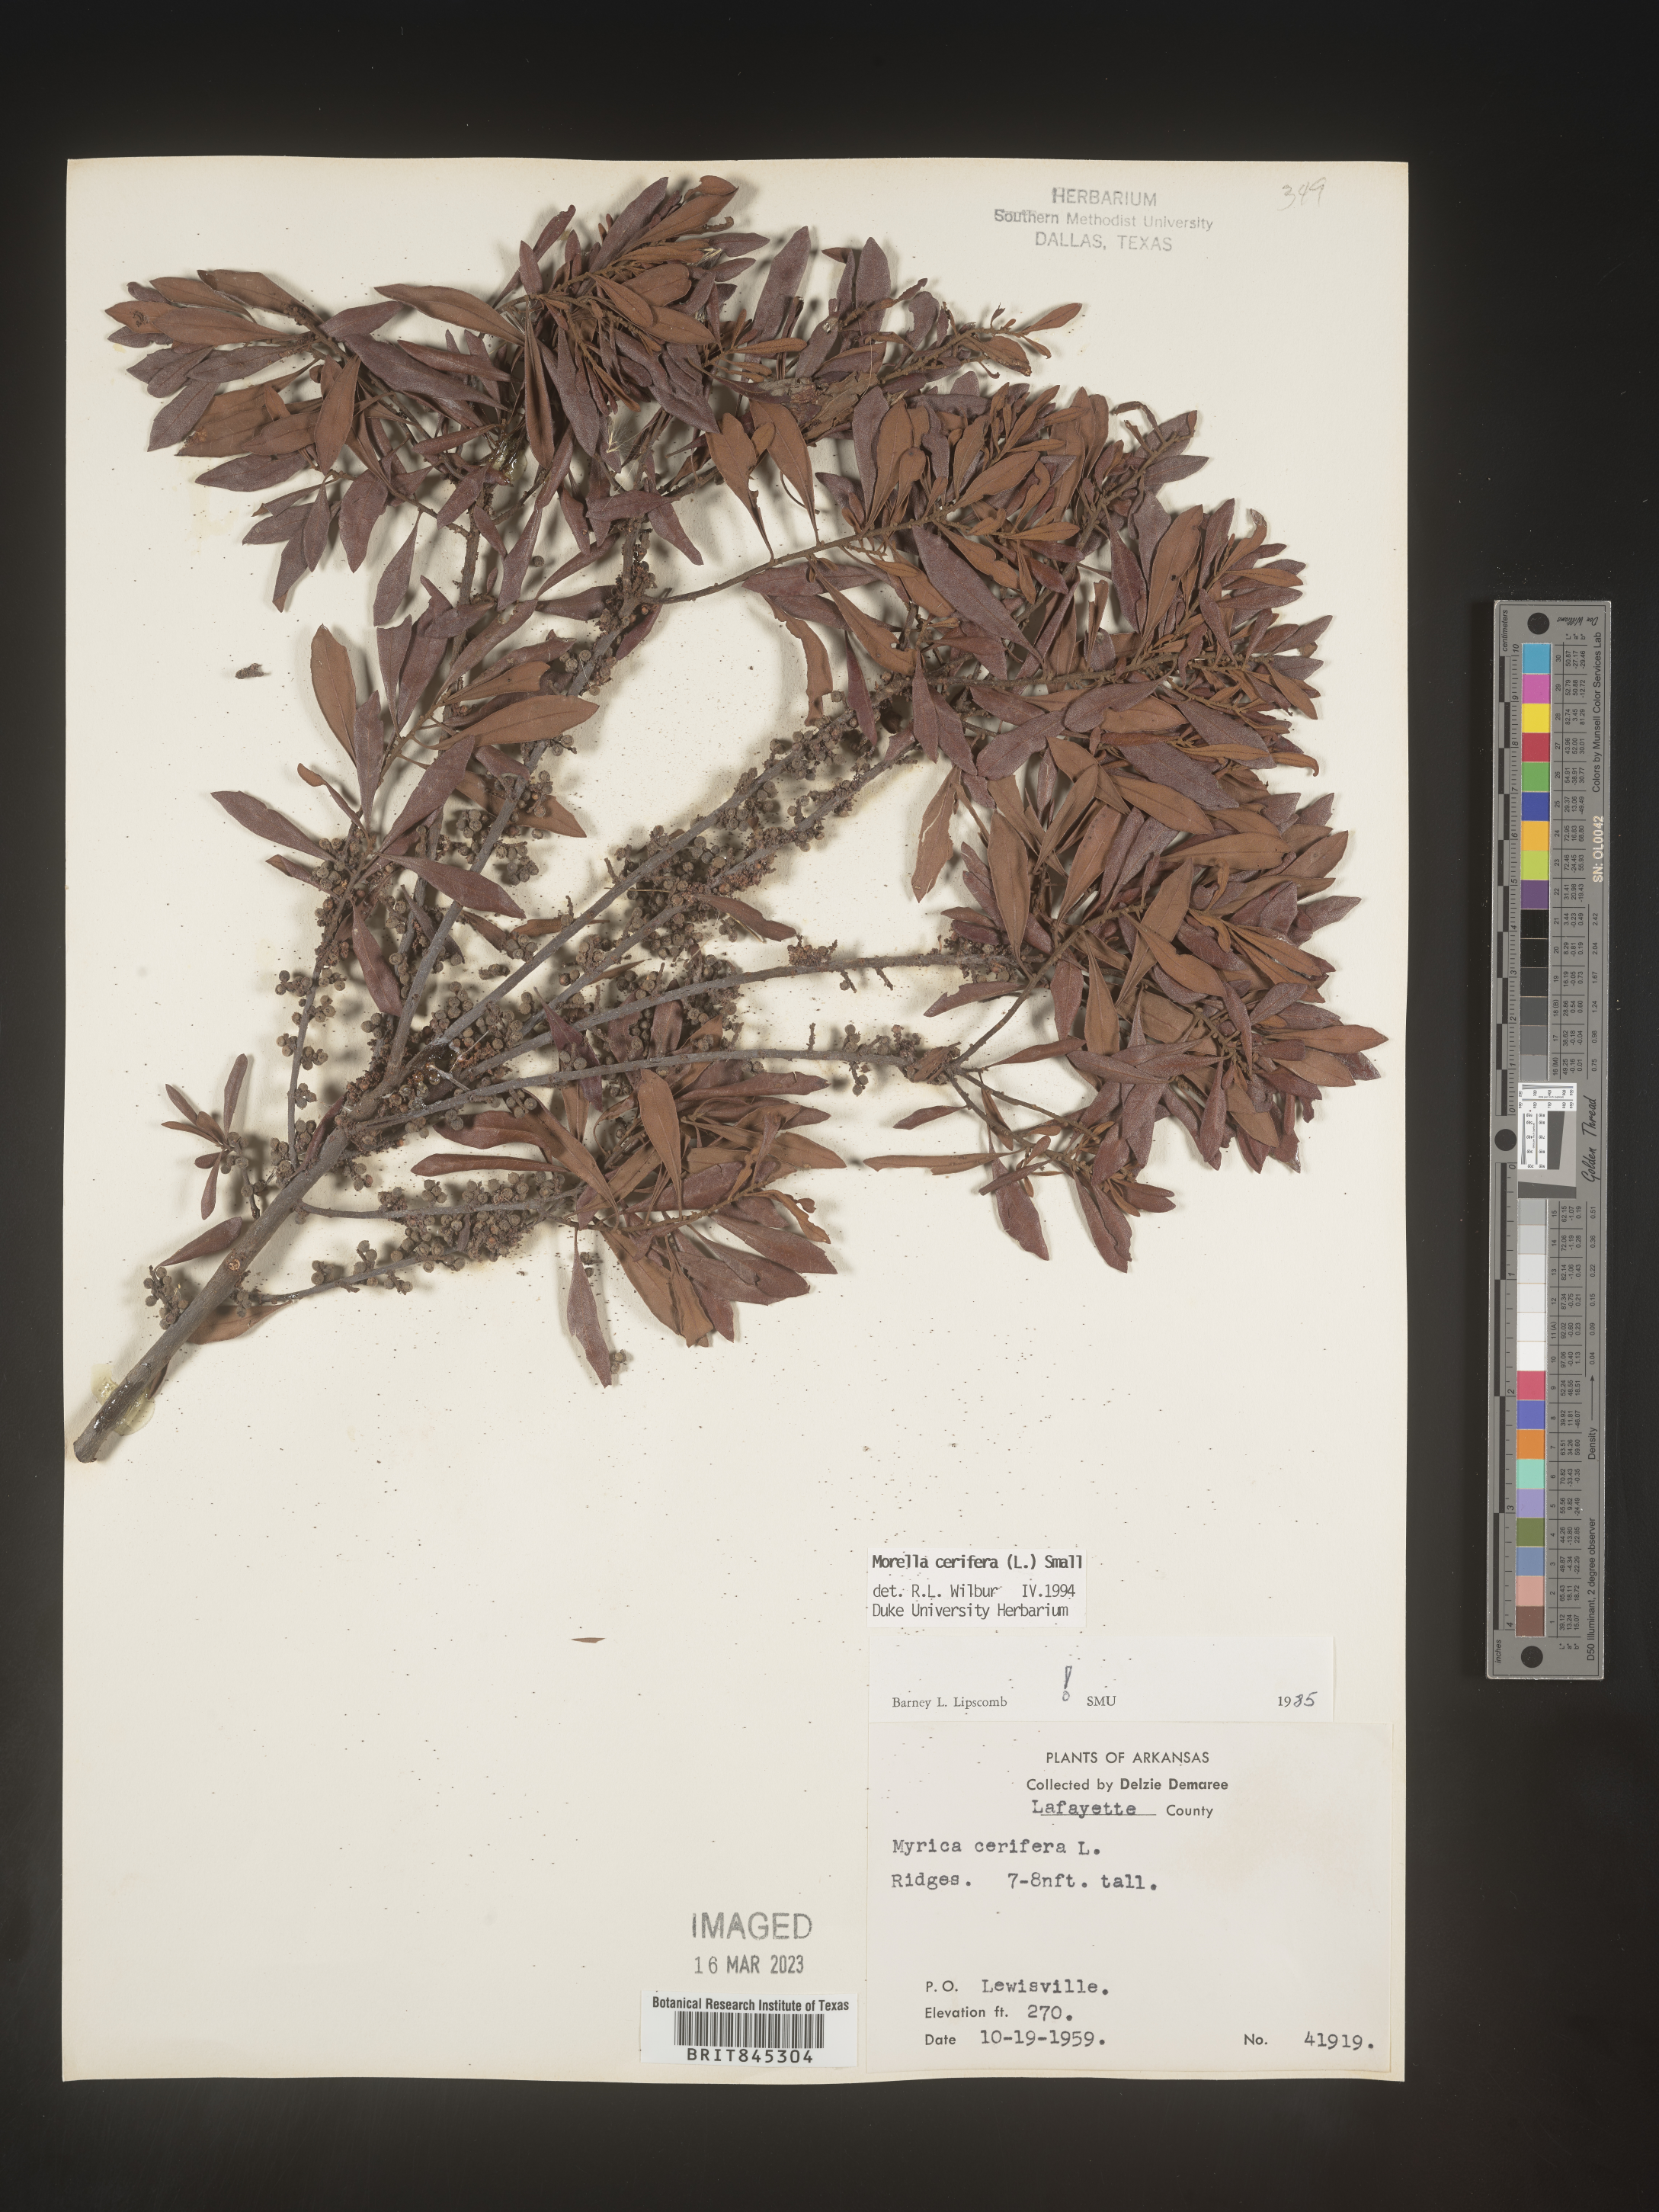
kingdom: Plantae
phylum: Tracheophyta
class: Magnoliopsida
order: Fagales
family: Myricaceae
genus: Morella
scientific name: Morella cerifera
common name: Wax myrtle
